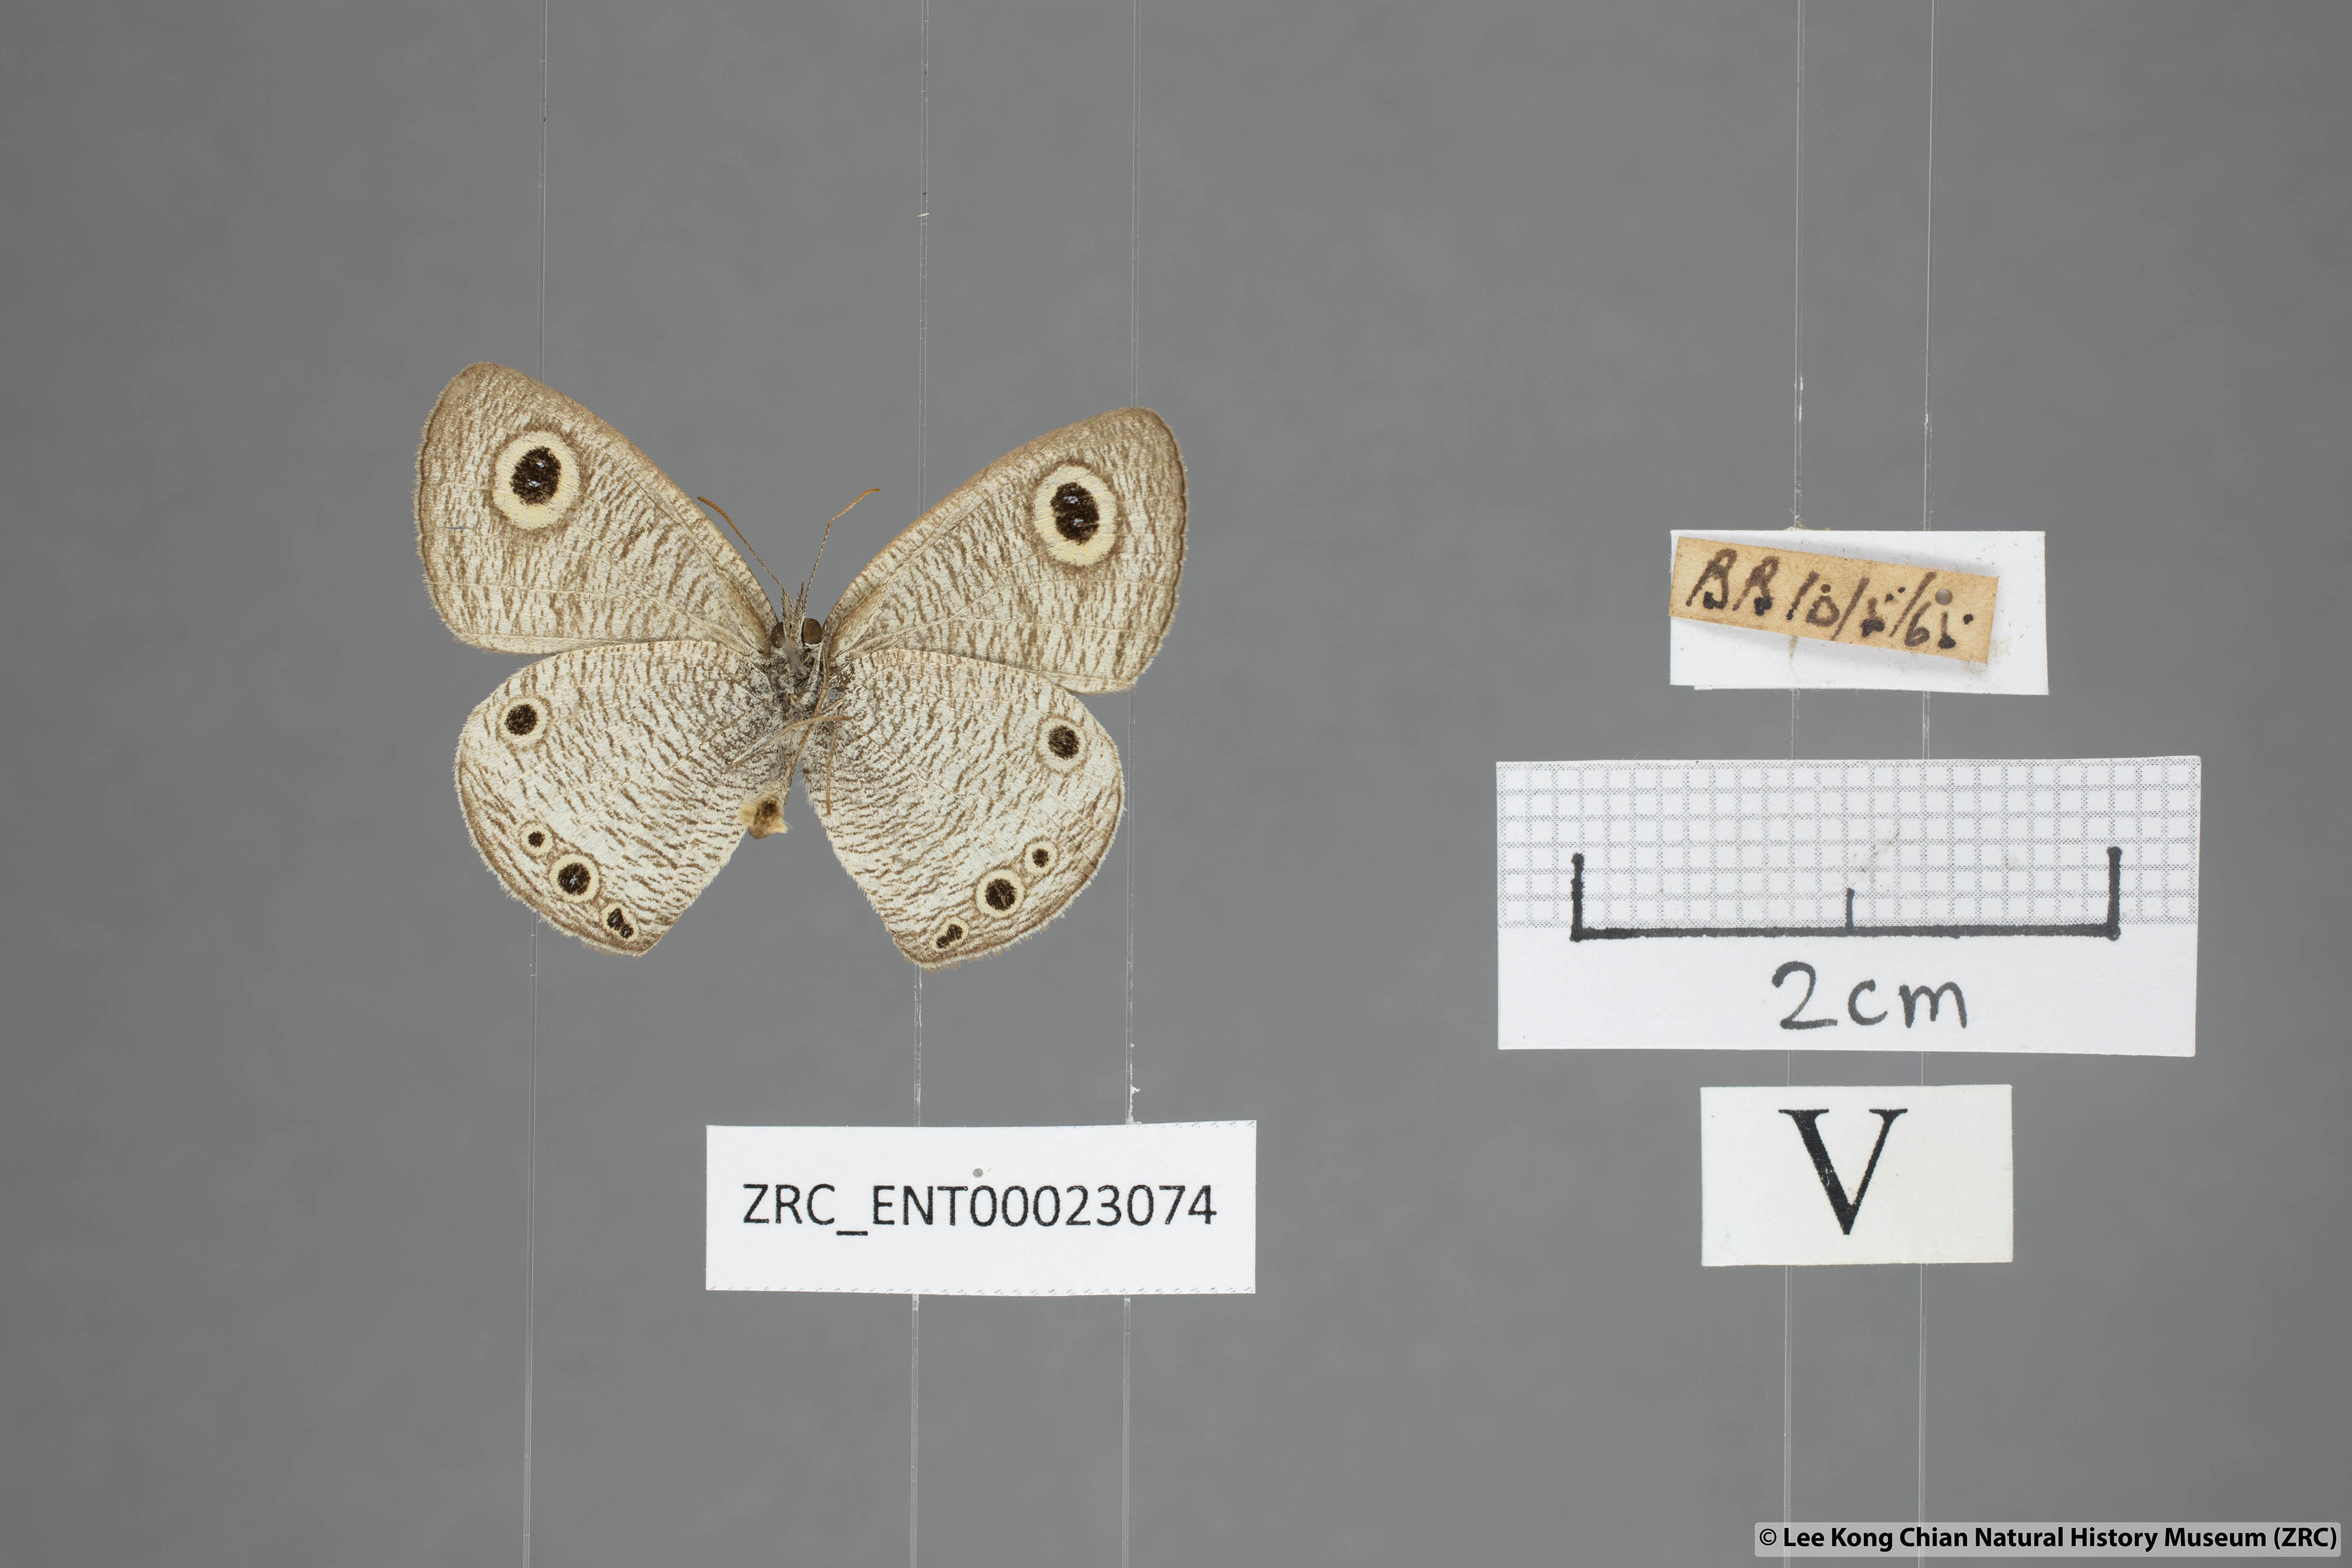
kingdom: Animalia
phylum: Arthropoda
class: Insecta
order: Lepidoptera
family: Nymphalidae
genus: Ypthima
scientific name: Ypthima huebneri
